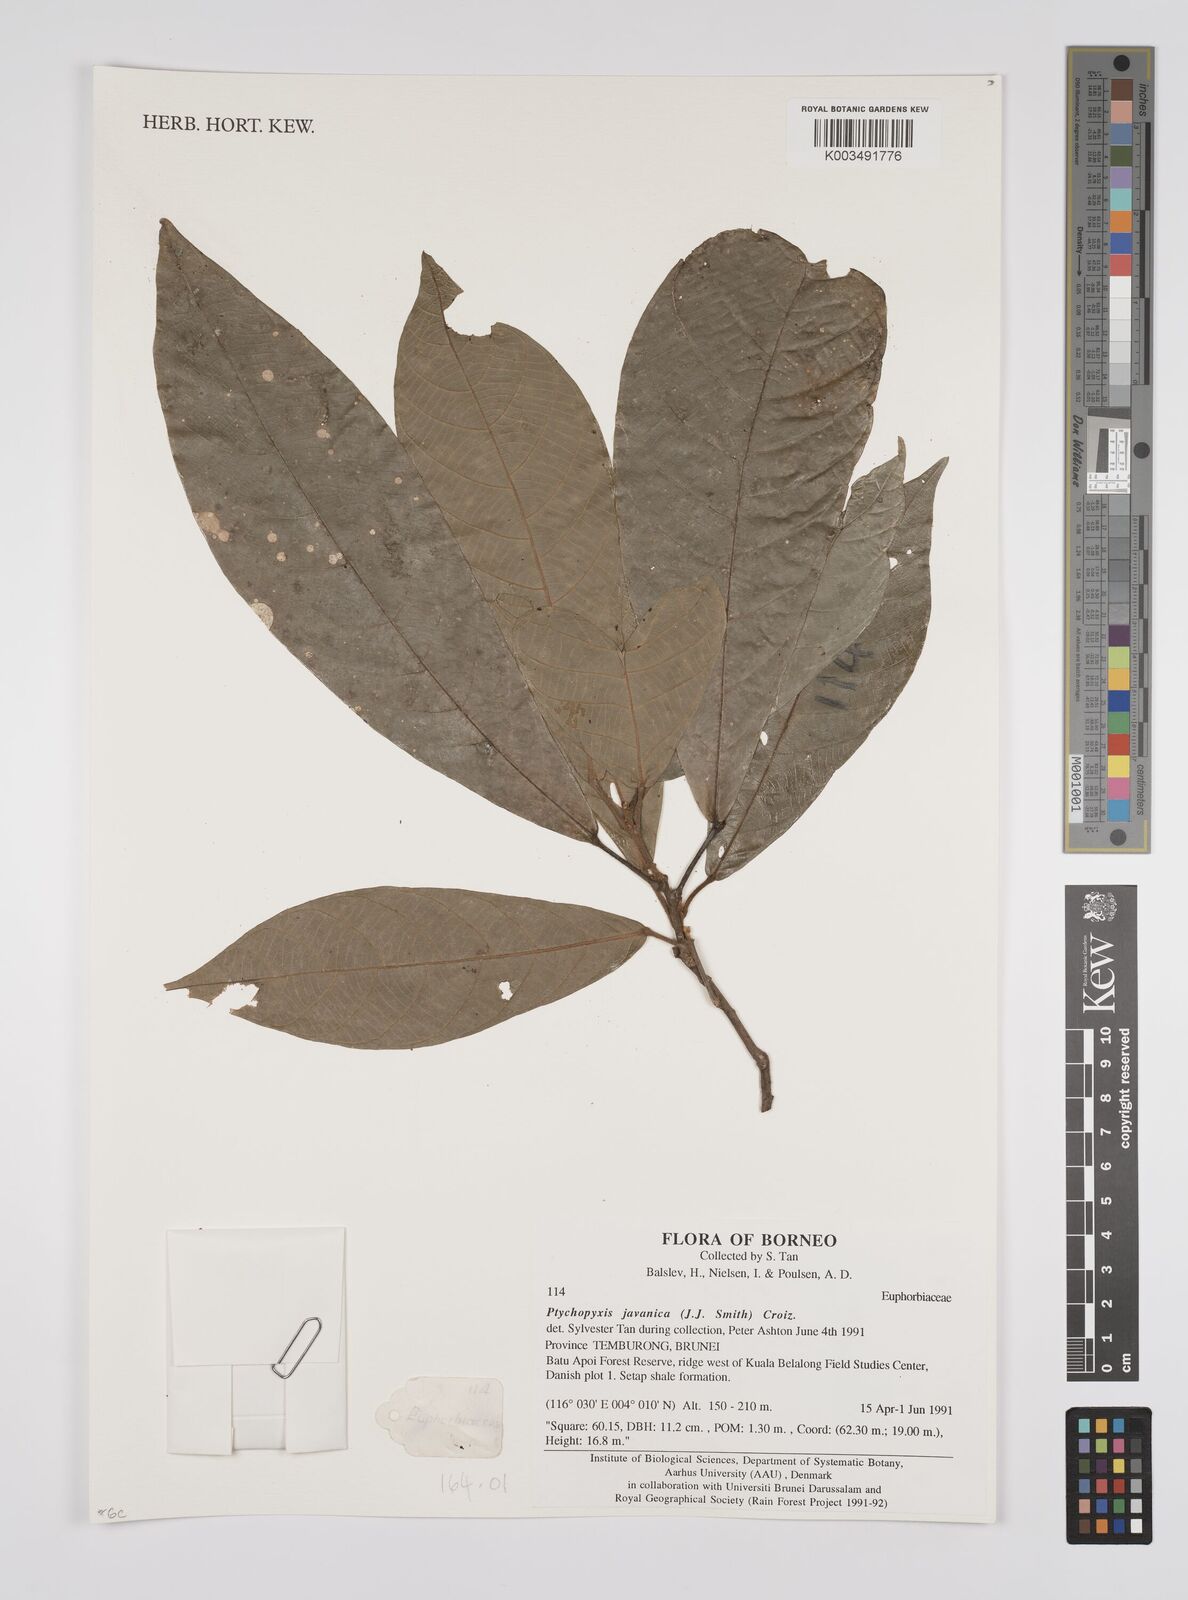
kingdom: Plantae
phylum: Tracheophyta
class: Magnoliopsida
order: Malpighiales
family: Euphorbiaceae
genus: Ptychopyxis
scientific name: Ptychopyxis javanica
